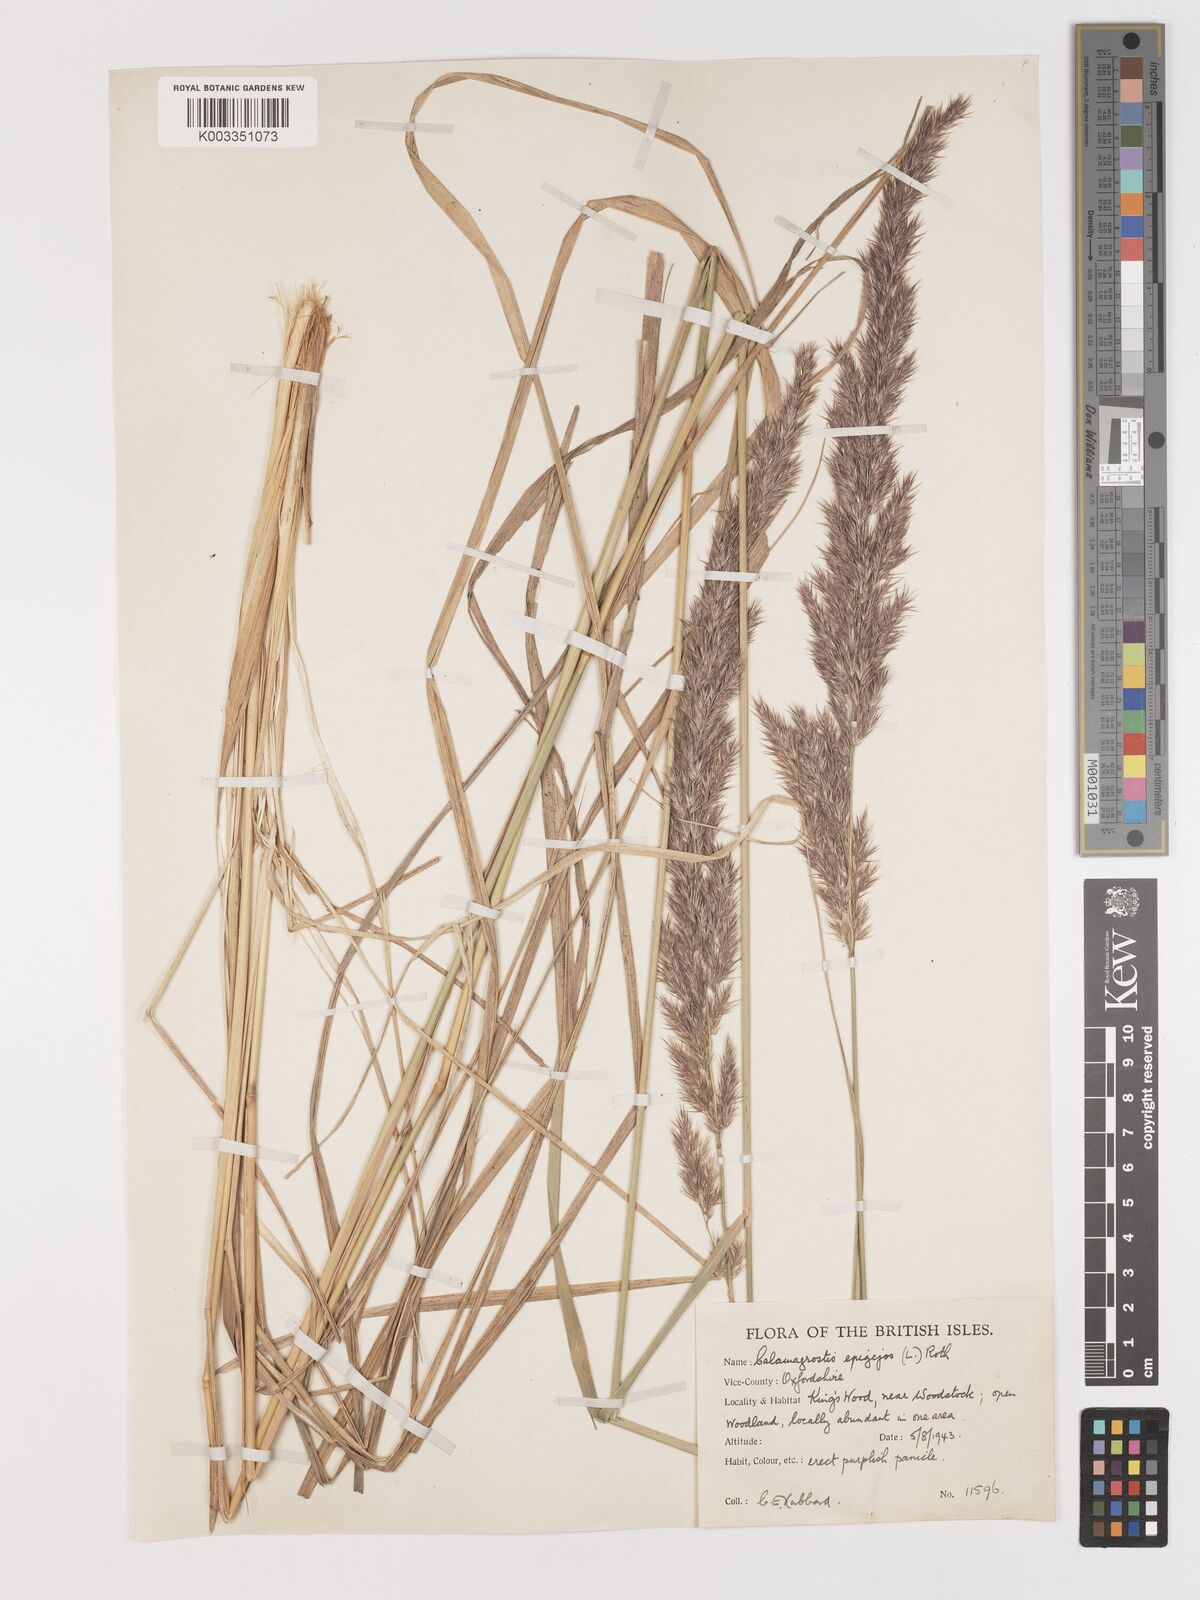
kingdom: Plantae
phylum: Tracheophyta
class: Liliopsida
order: Poales
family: Poaceae
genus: Calamagrostis
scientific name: Calamagrostis epigejos
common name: Wood small-reed
